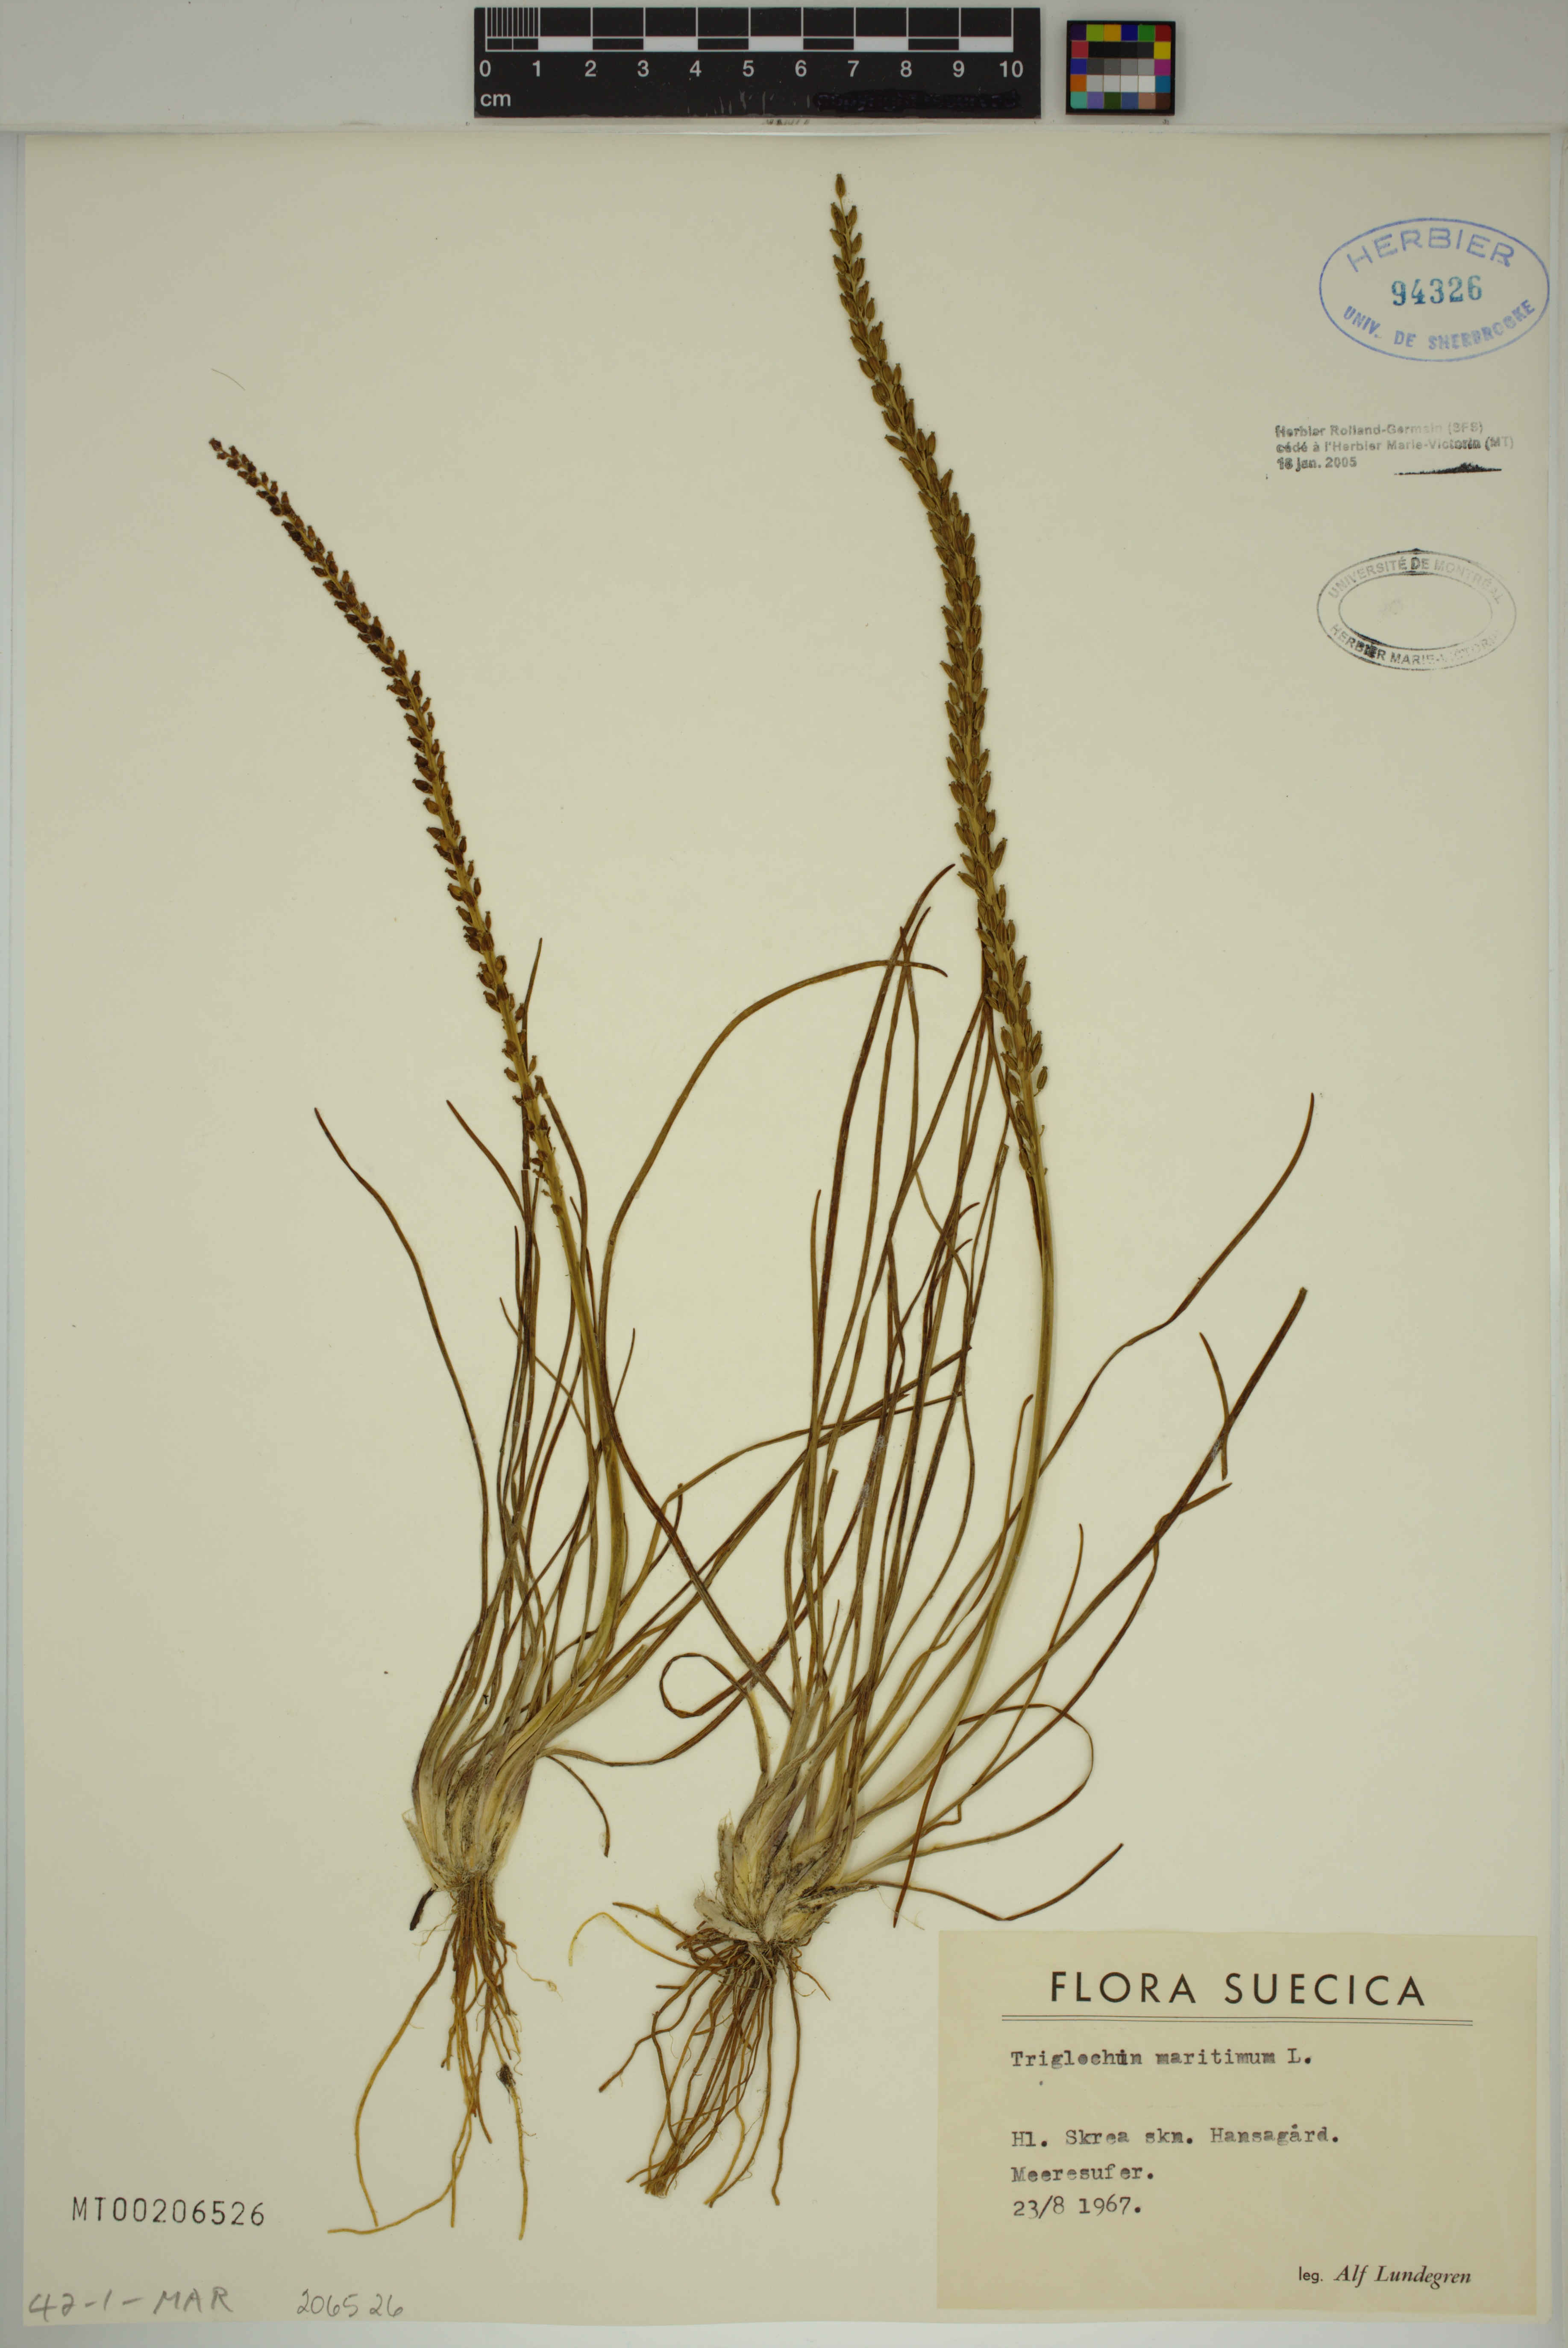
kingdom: Plantae
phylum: Tracheophyta
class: Liliopsida
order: Alismatales
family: Juncaginaceae
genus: Triglochin
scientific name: Triglochin maritima
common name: Sea arrowgrass
